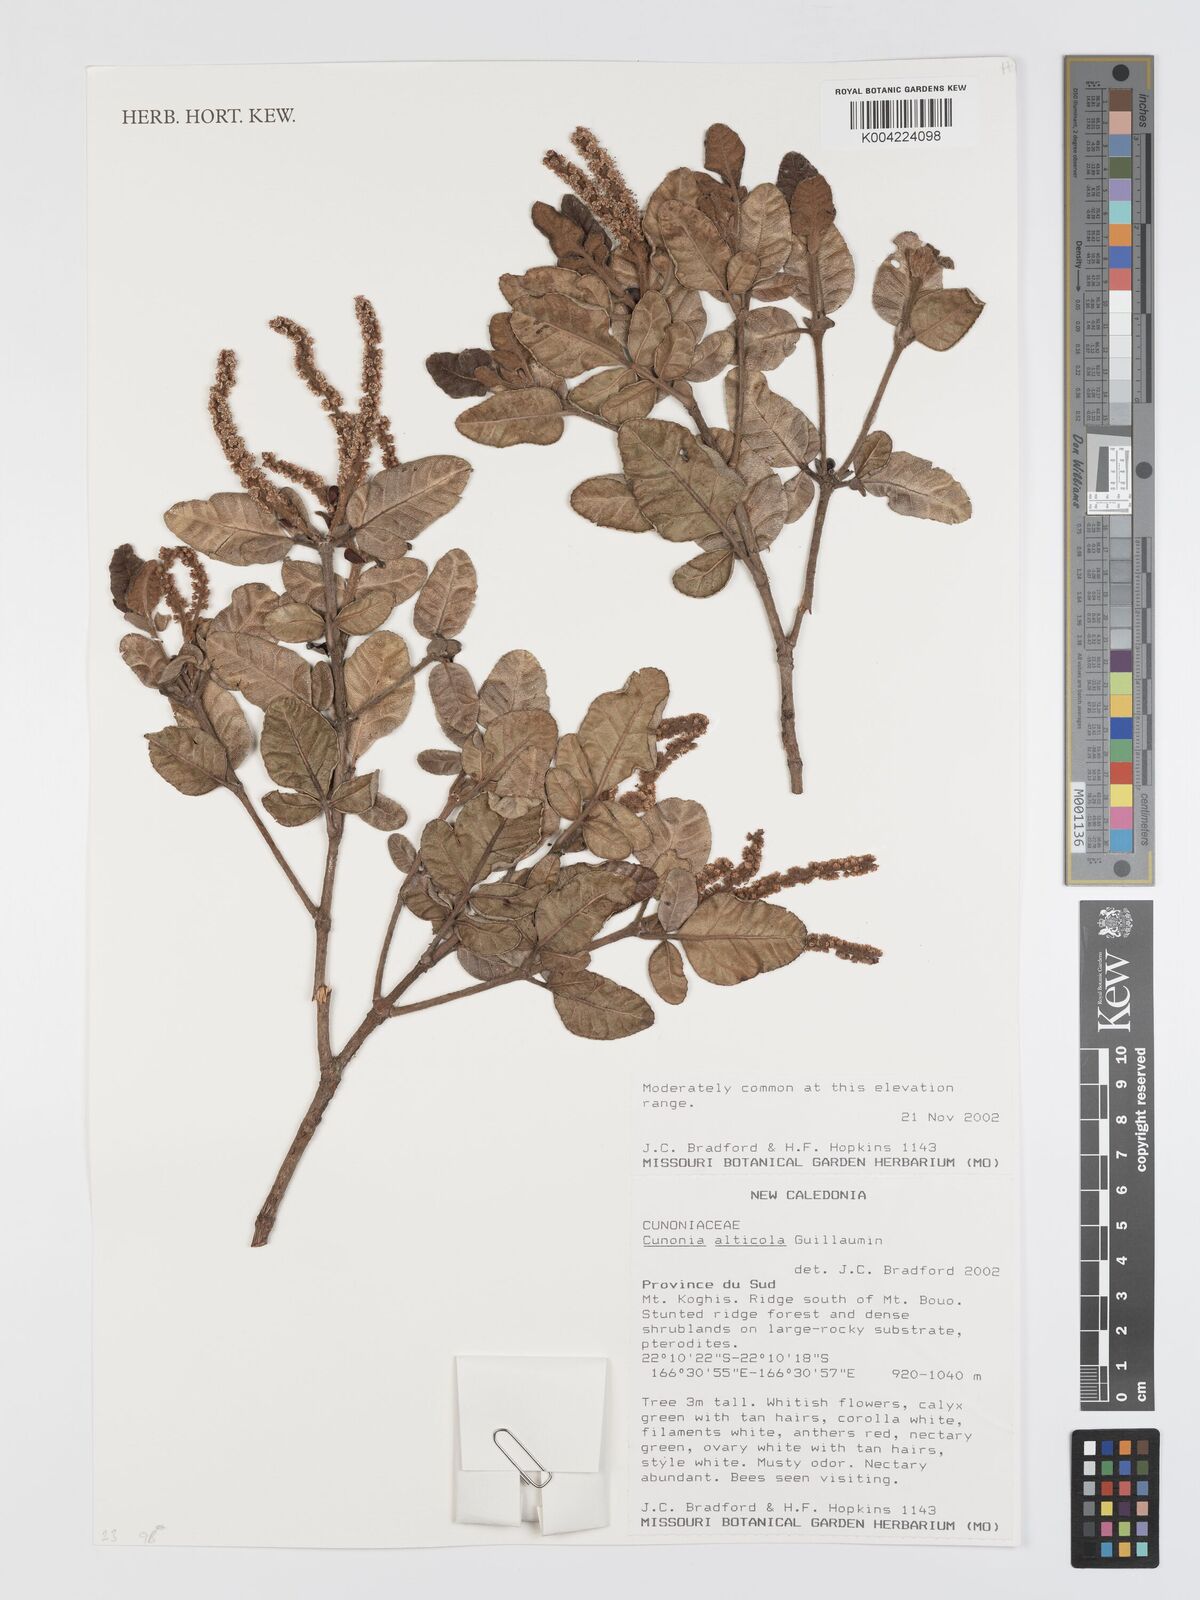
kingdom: Plantae
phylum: Tracheophyta
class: Magnoliopsida
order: Oxalidales
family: Cunoniaceae
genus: Cunonia
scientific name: Cunonia alticola
